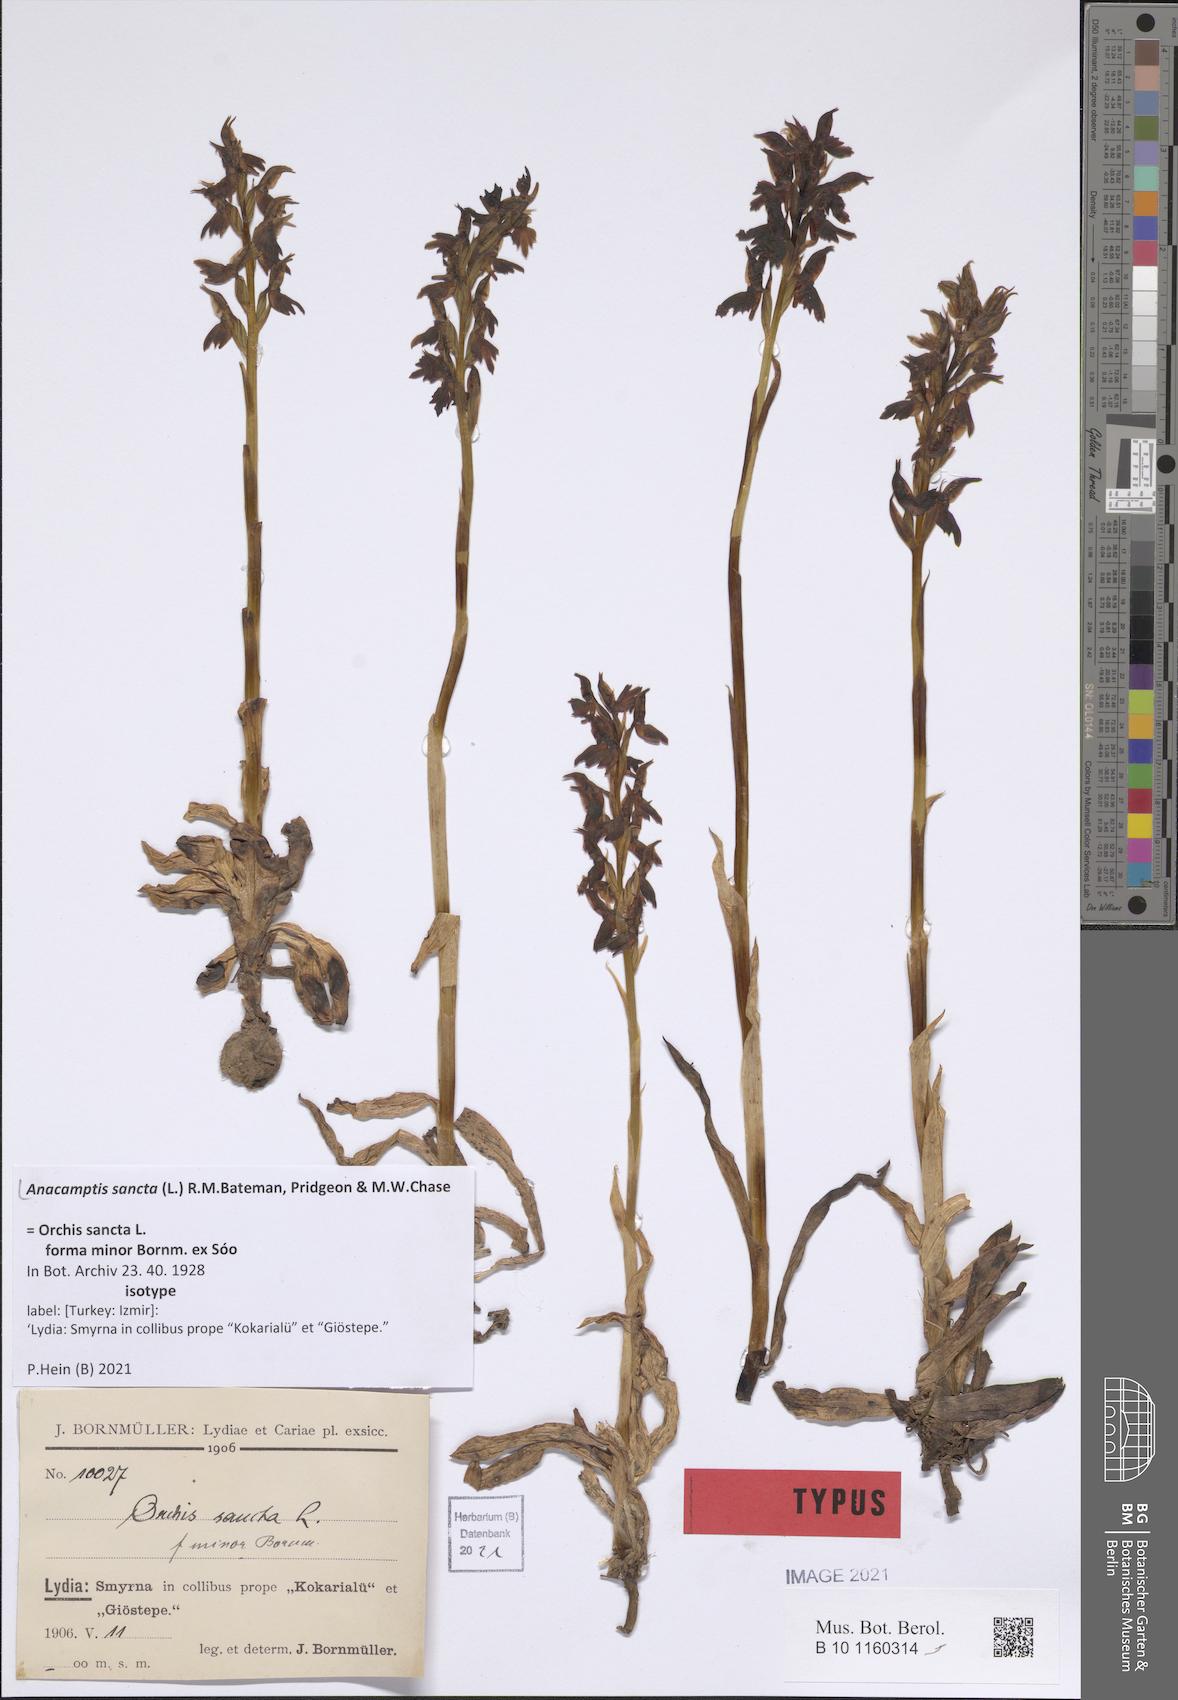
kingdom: Plantae
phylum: Tracheophyta
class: Liliopsida
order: Asparagales
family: Orchidaceae
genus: Anacamptis
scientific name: Anacamptis sancta
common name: Holy orchid
